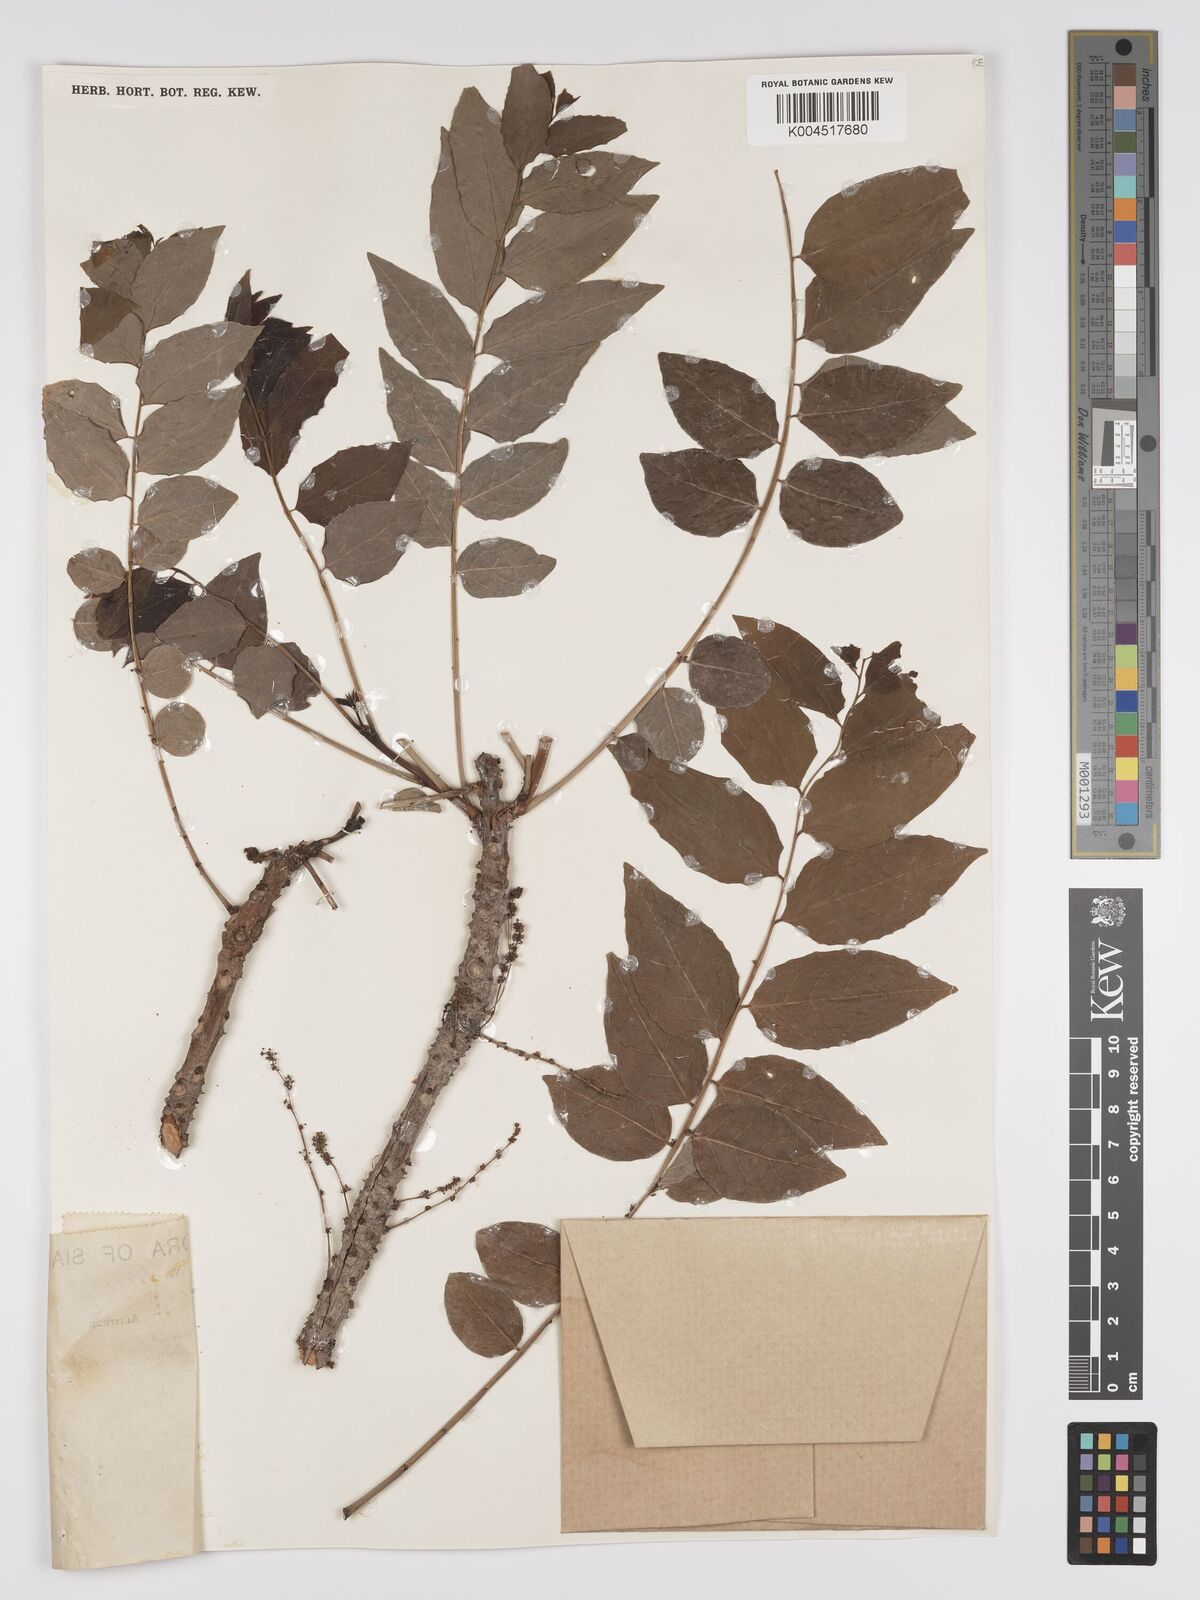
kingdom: Plantae
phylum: Tracheophyta
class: Magnoliopsida
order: Malpighiales
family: Phyllanthaceae
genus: Phyllanthus
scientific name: Phyllanthus acidus
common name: Tahitian gooseberry tree
